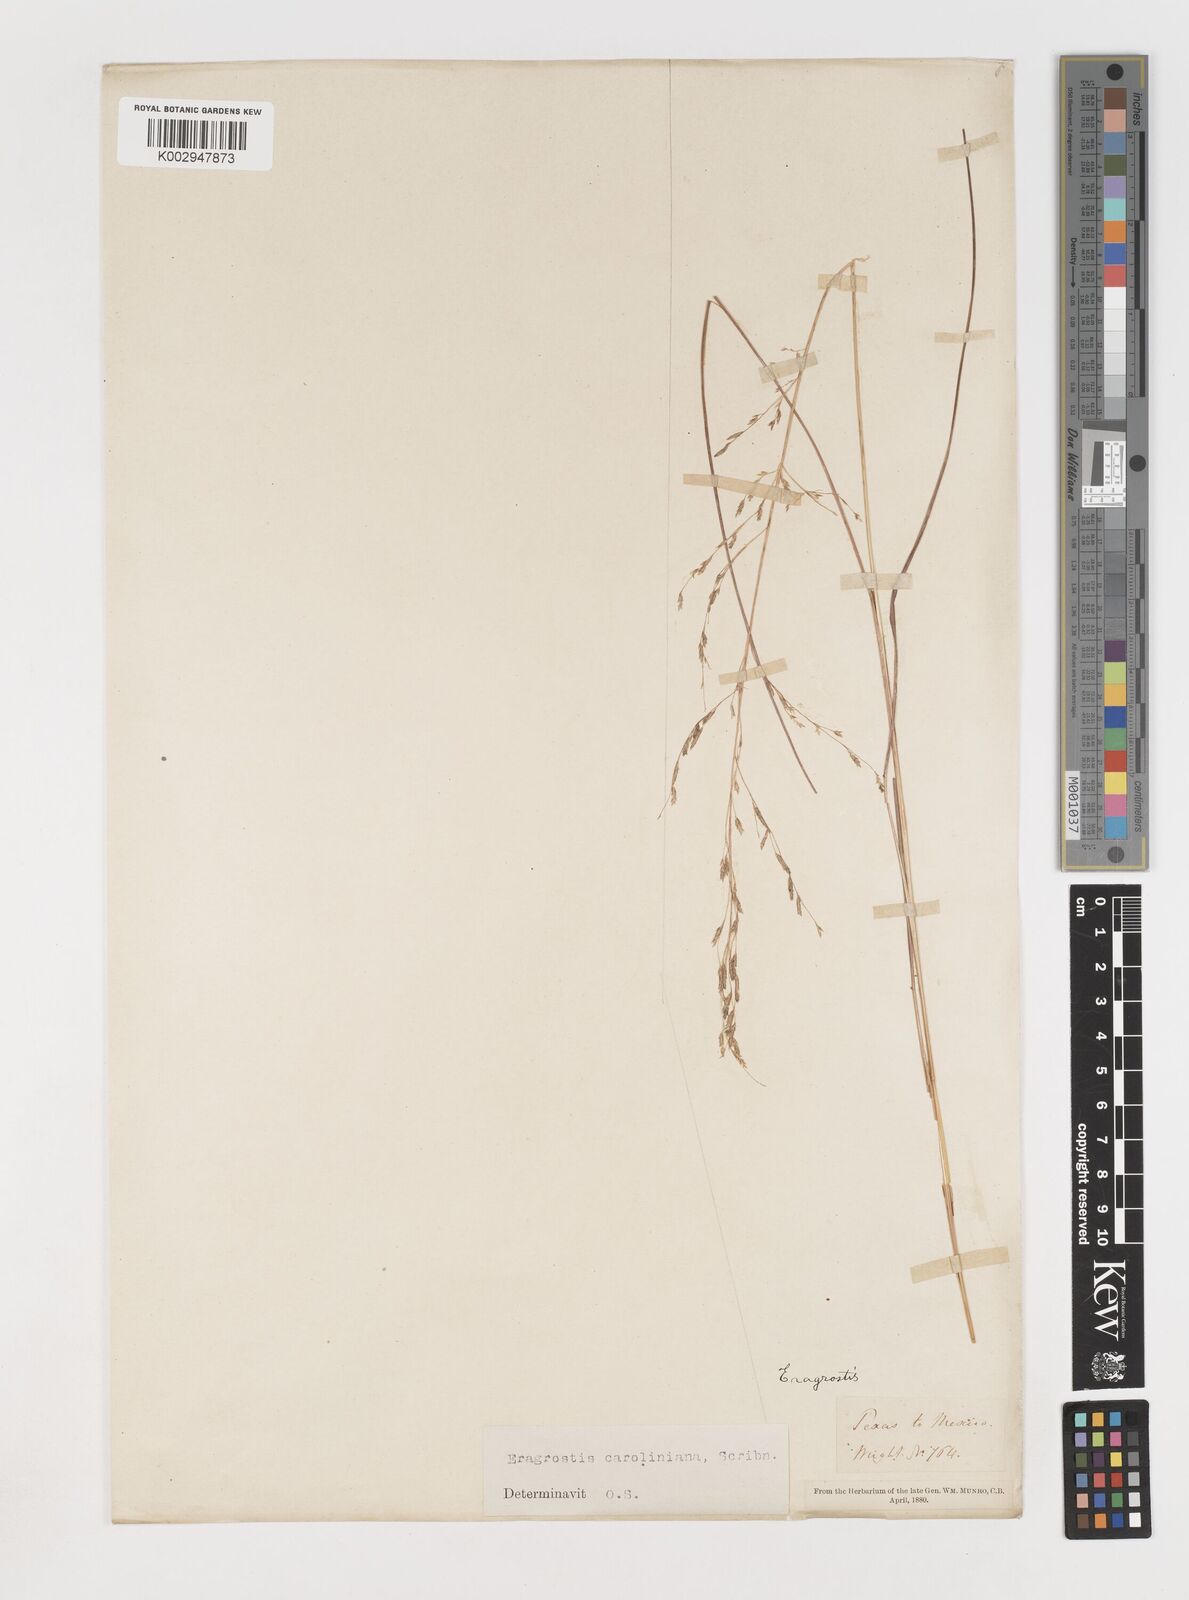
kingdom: Plantae
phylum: Tracheophyta
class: Liliopsida
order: Poales
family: Poaceae
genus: Eragrostis
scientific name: Eragrostis
